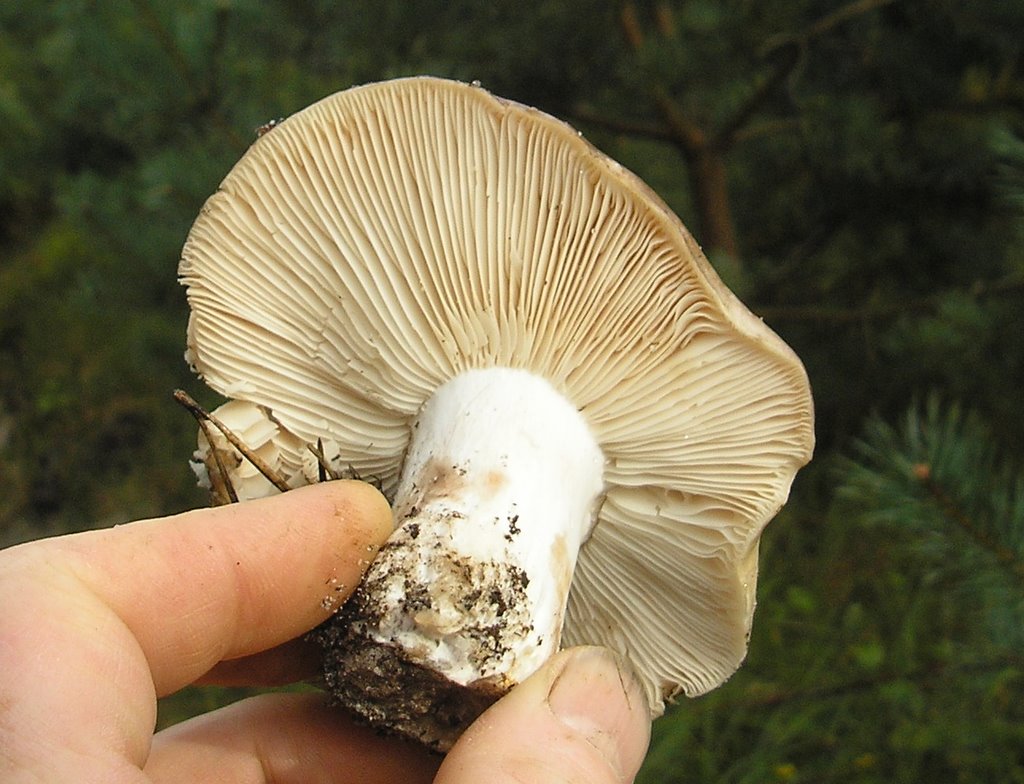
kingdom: Fungi
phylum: Basidiomycota
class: Agaricomycetes
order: Russulales
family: Russulaceae
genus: Russula
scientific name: Russula adusta
